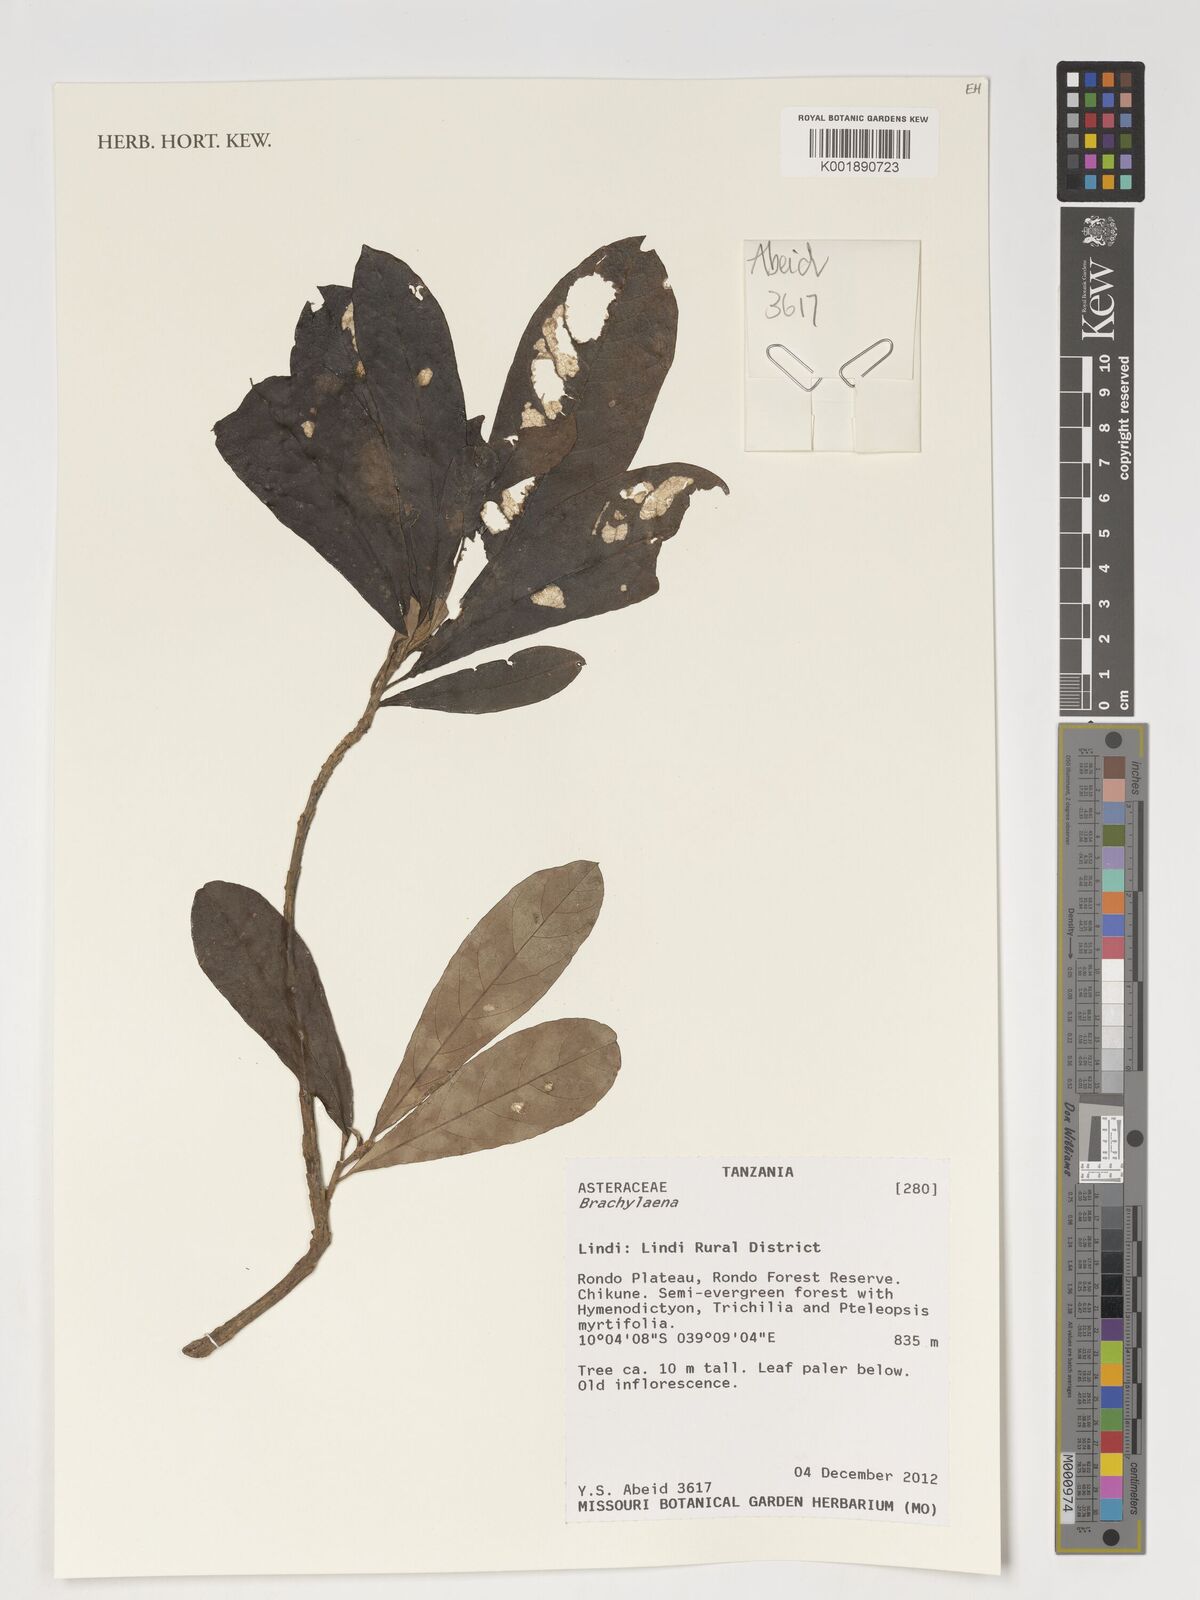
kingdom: Plantae
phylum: Tracheophyta
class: Magnoliopsida
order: Asterales
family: Asteraceae
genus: Brachylaena
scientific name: Brachylaena
